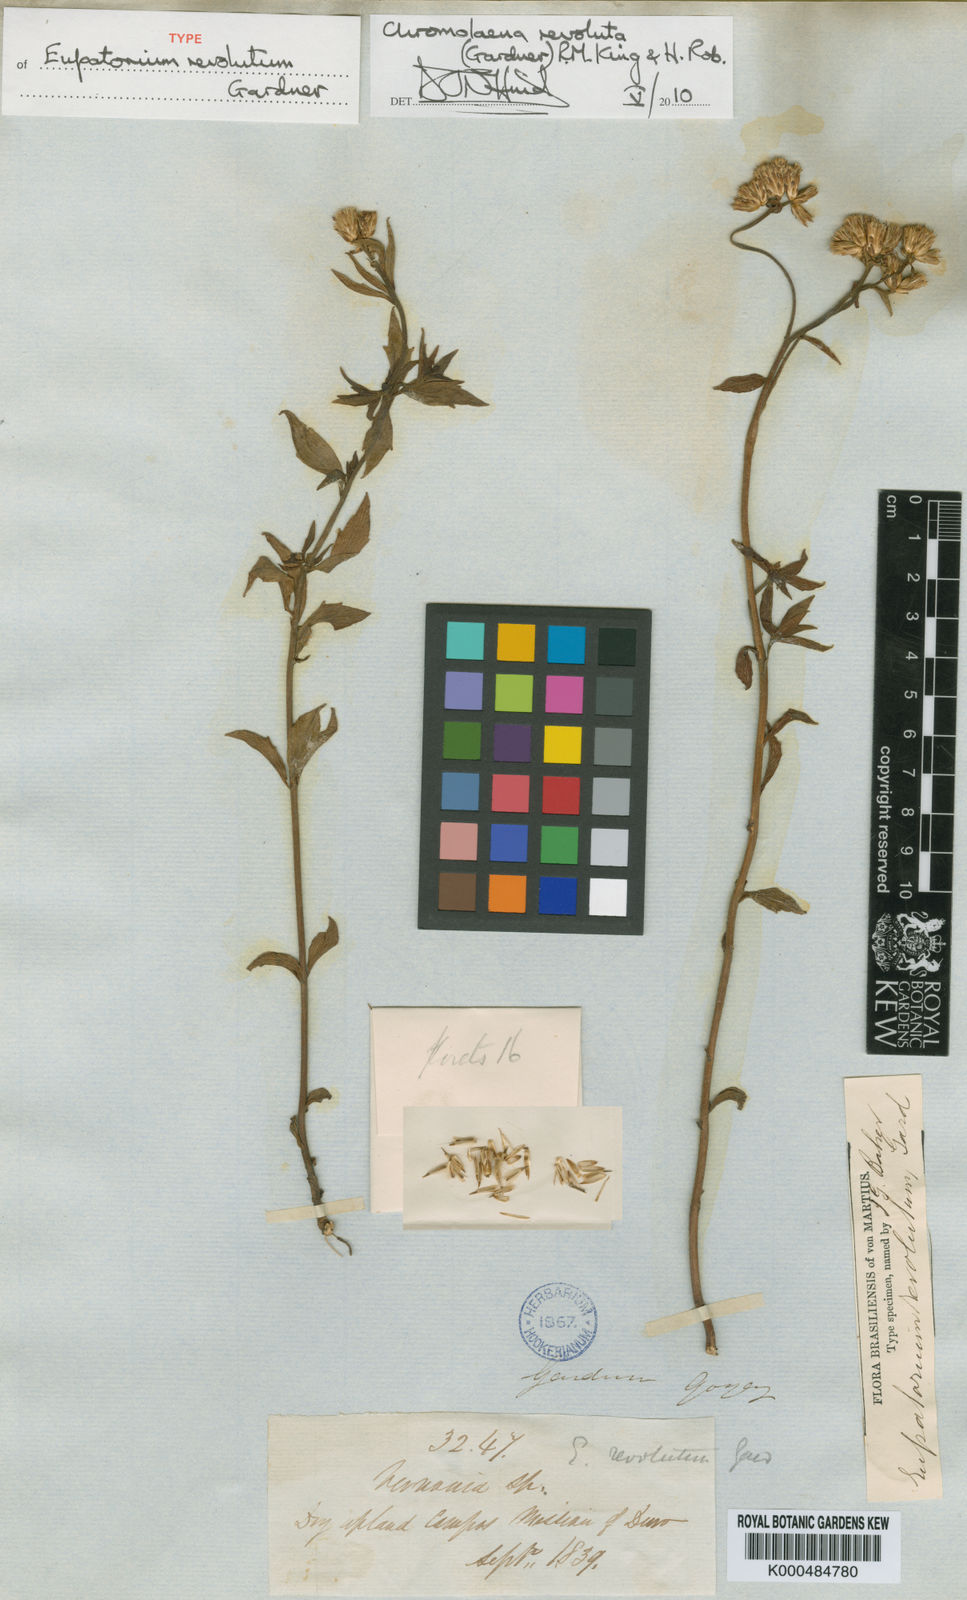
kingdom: Plantae
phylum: Tracheophyta
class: Magnoliopsida
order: Asterales
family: Asteraceae
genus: Chromolaena
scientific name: Chromolaena revoluta
